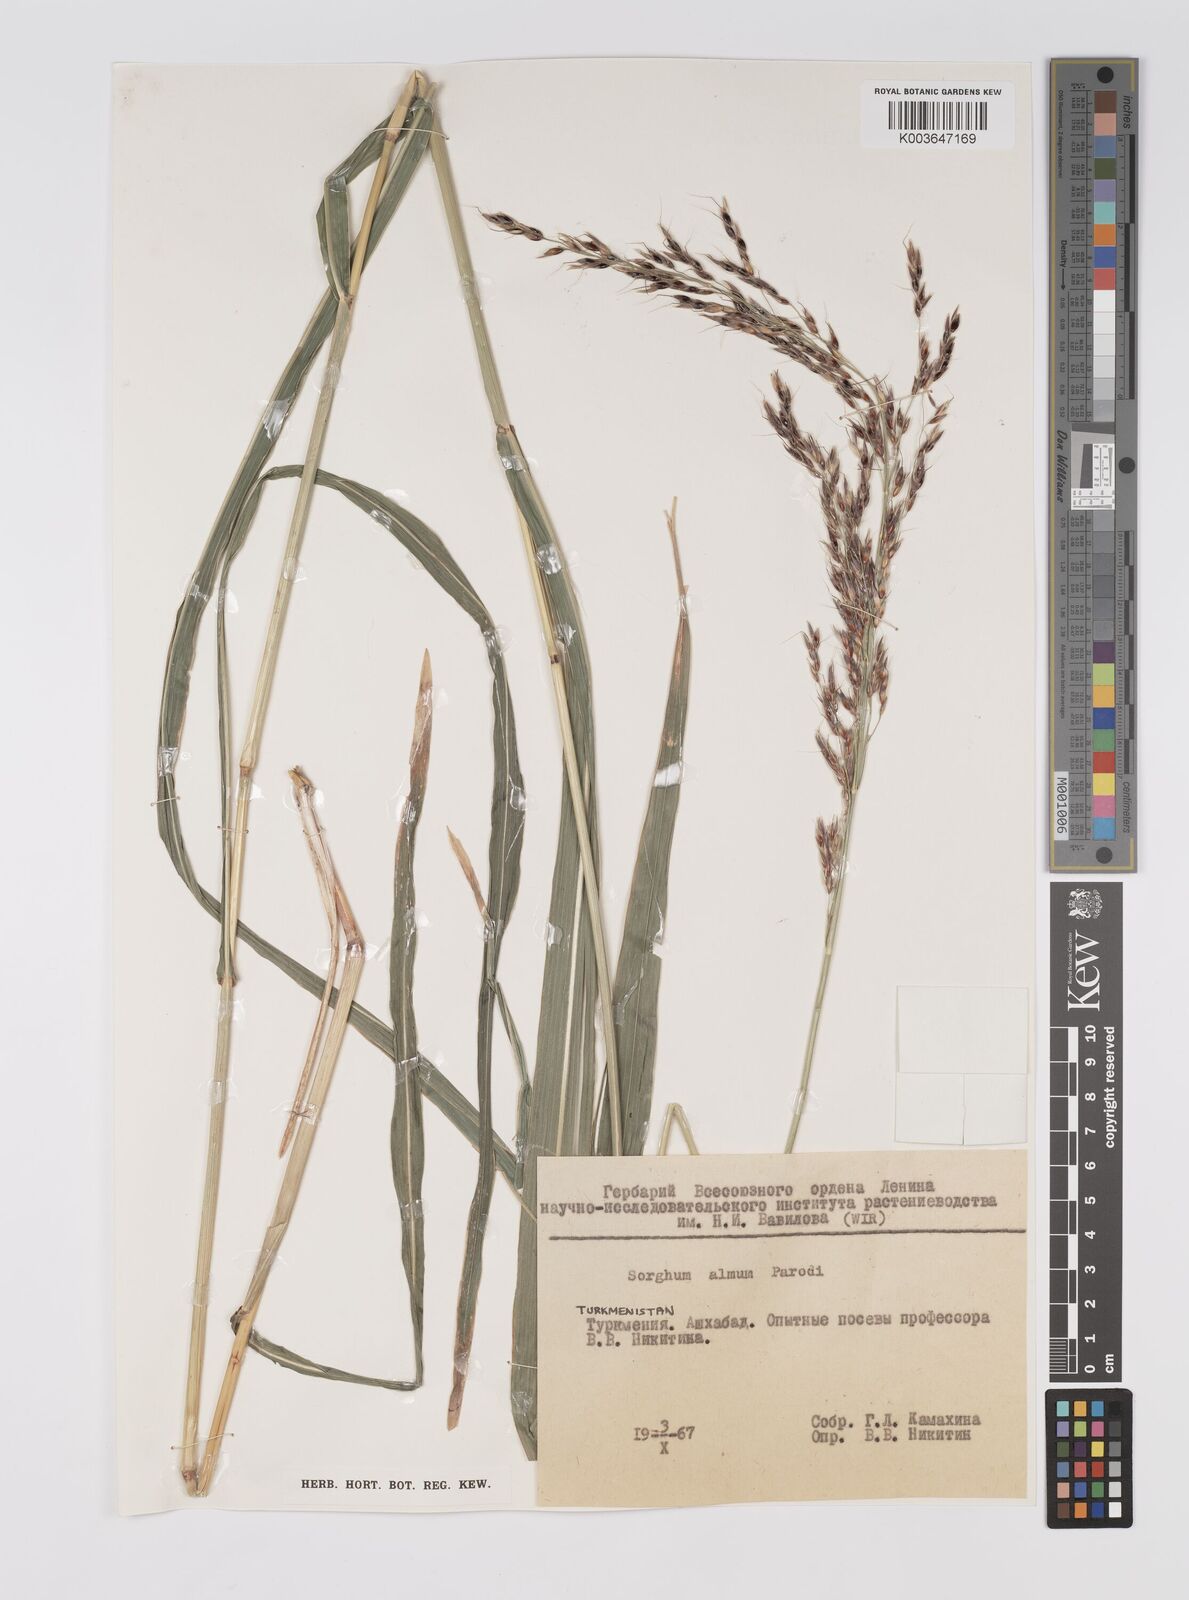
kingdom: Plantae
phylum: Tracheophyta
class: Liliopsida
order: Poales
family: Poaceae
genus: Sorghum
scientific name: Sorghum almum
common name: Columbus grass
